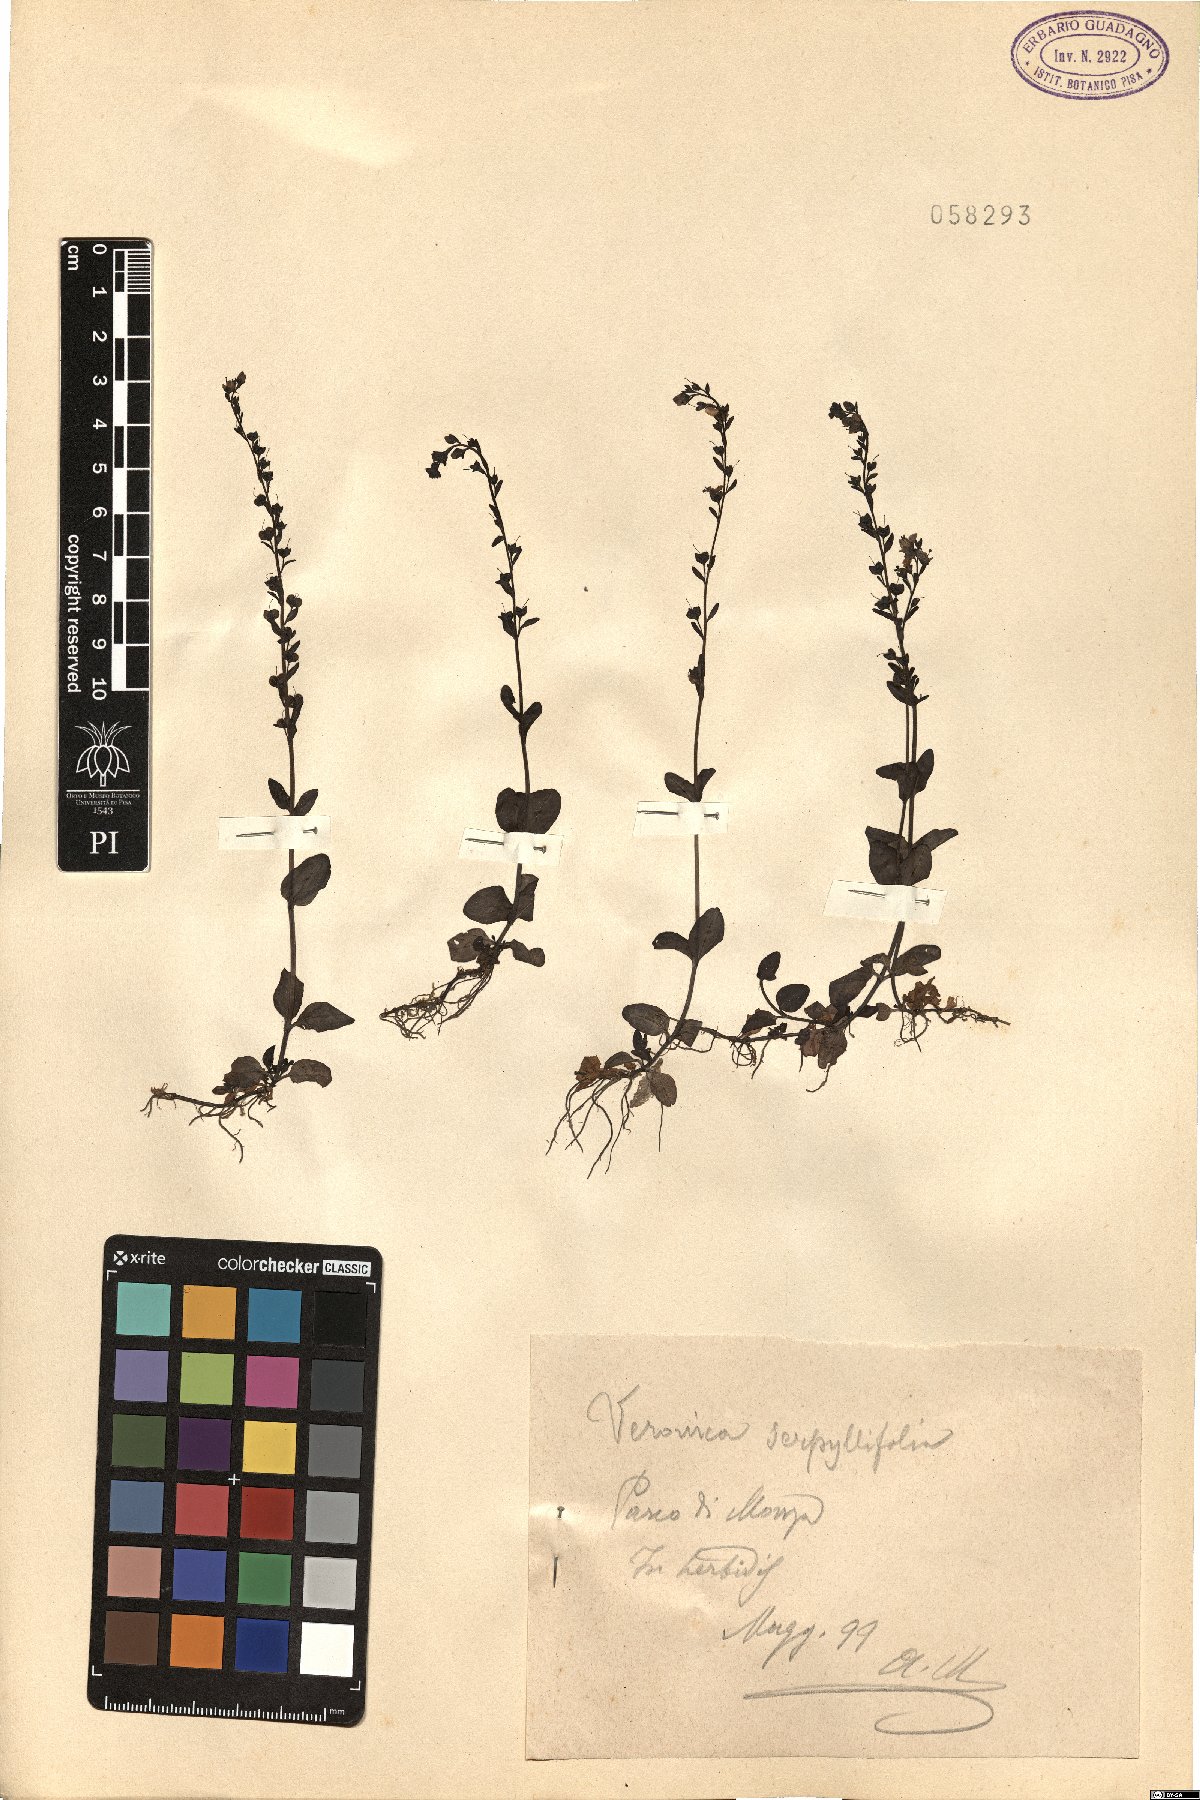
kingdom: Plantae
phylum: Tracheophyta
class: Magnoliopsida
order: Lamiales
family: Plantaginaceae
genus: Veronica
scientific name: Veronica serpyllifolia
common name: Thyme-leaved speedwell
